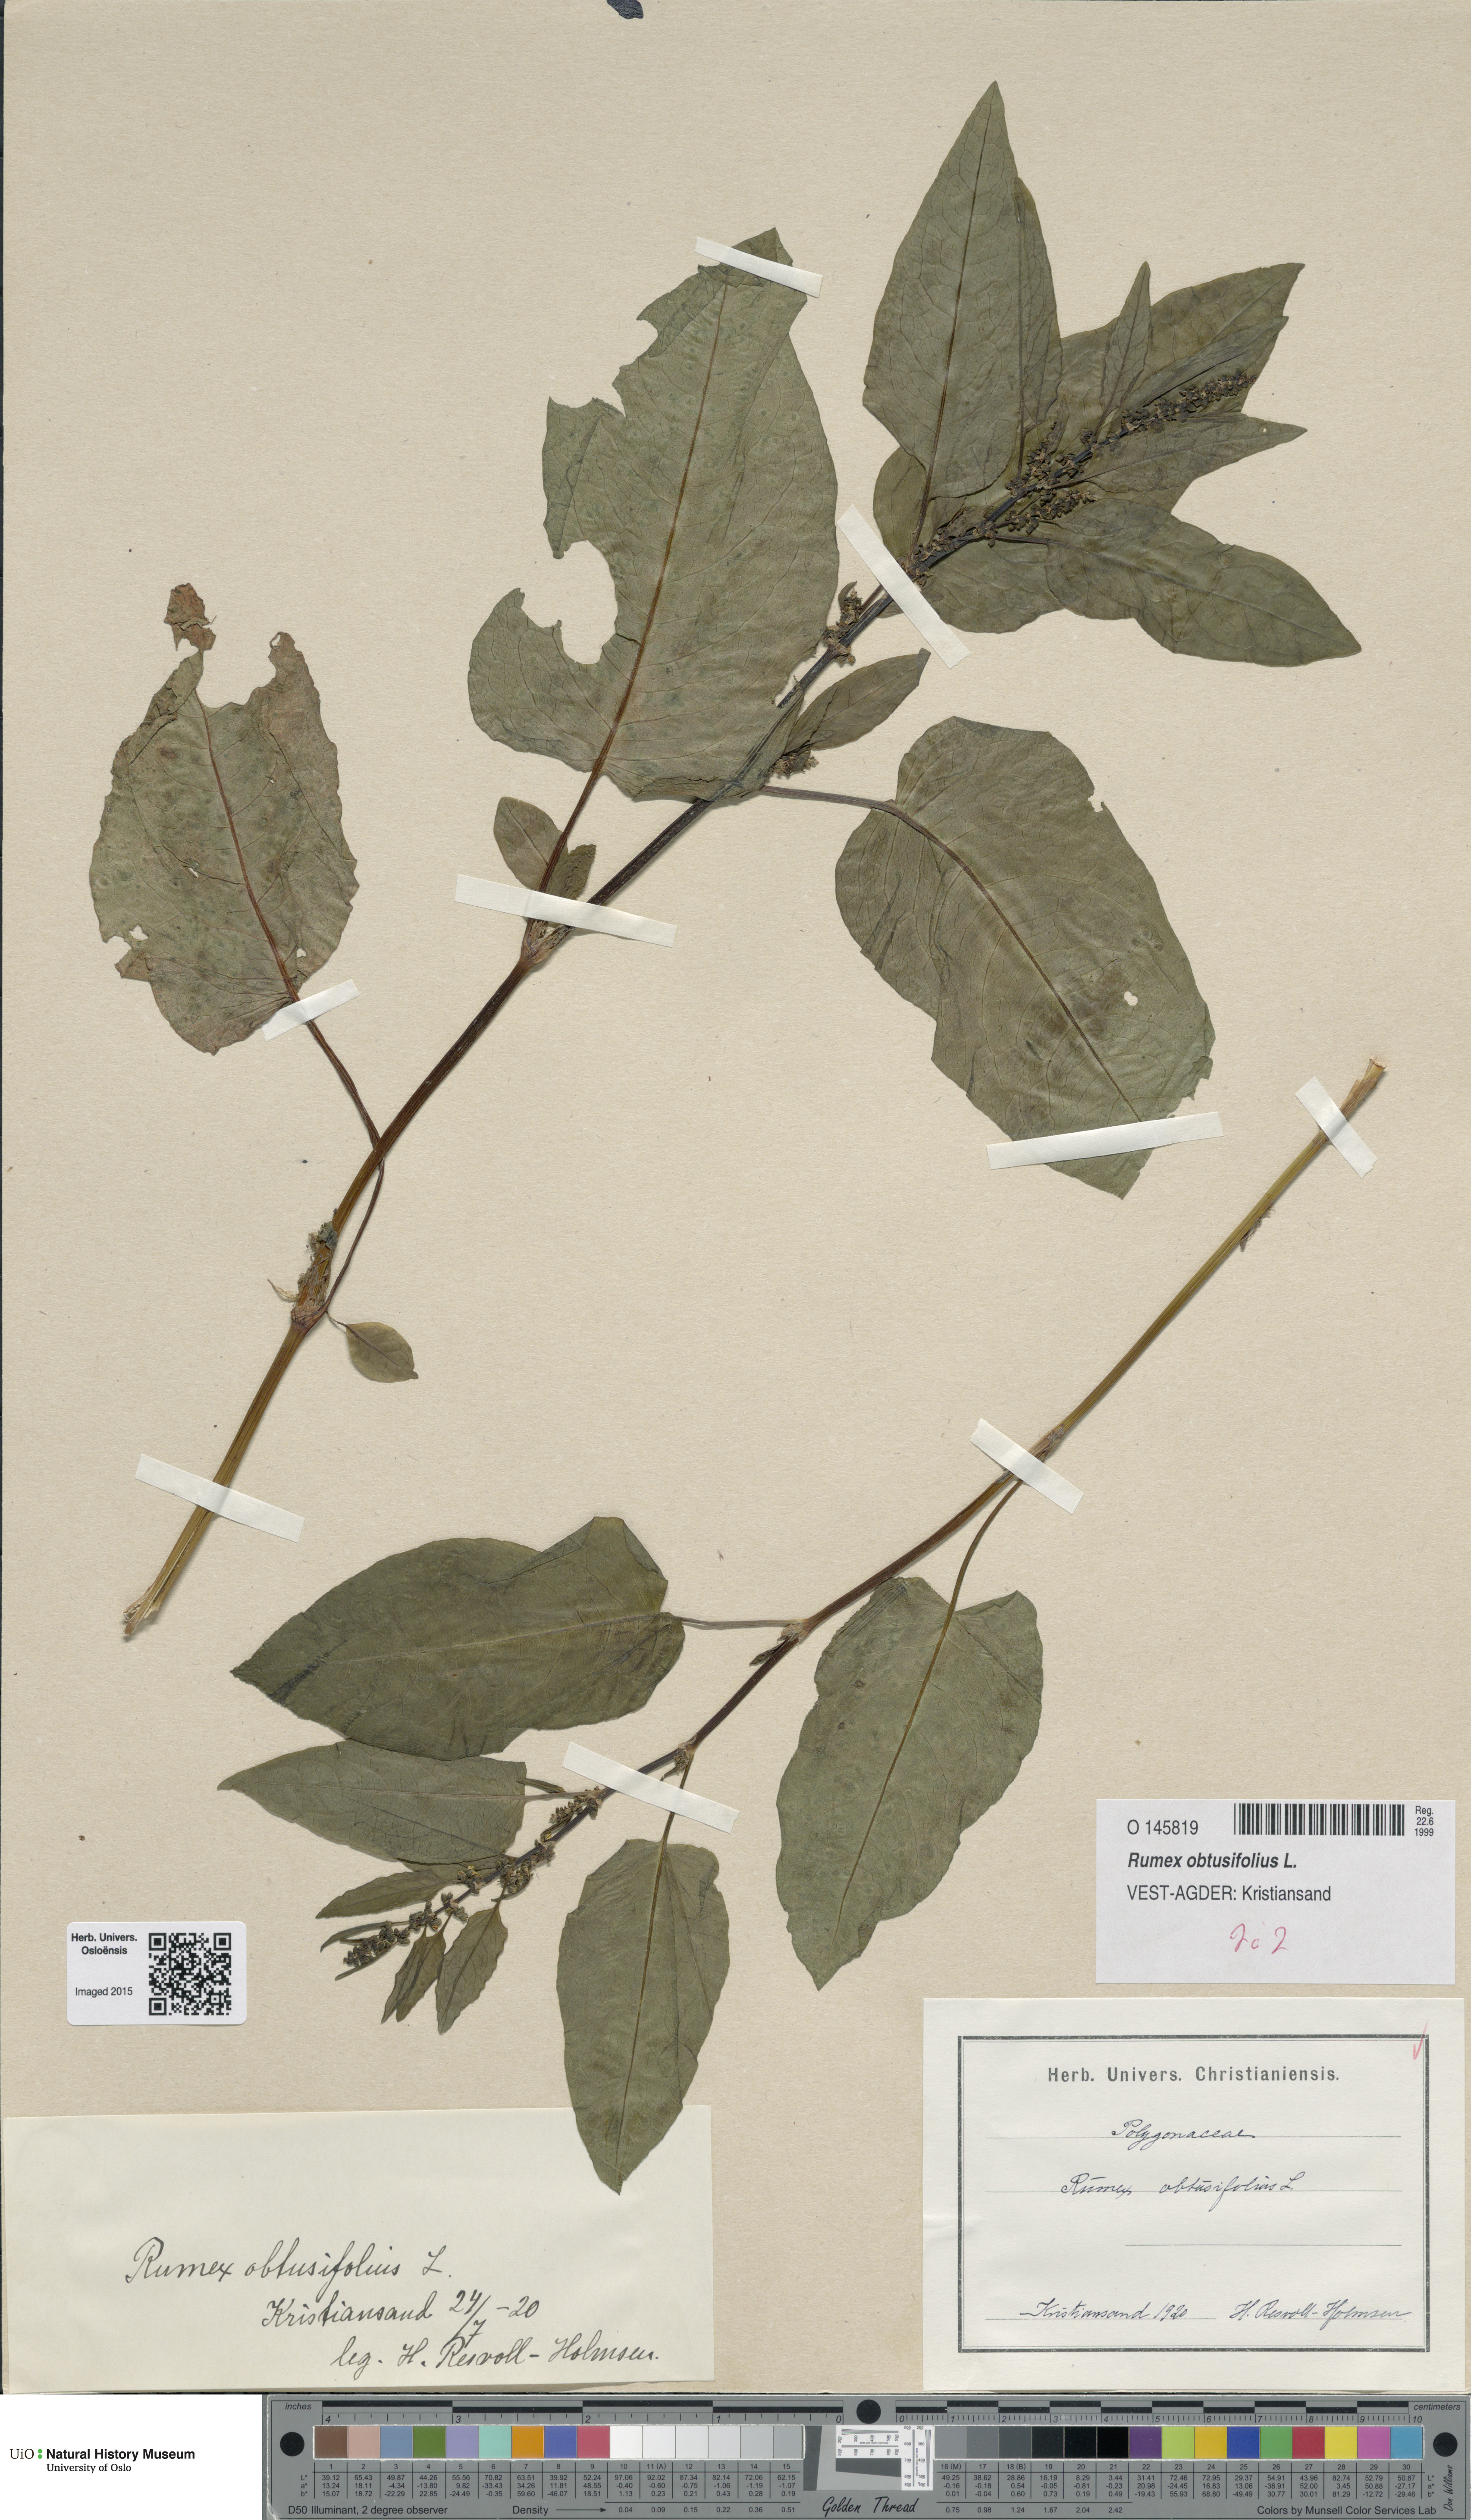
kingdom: Plantae
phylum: Tracheophyta
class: Magnoliopsida
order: Caryophyllales
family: Polygonaceae
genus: Rumex
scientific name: Rumex obtusifolius
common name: Bitter dock
